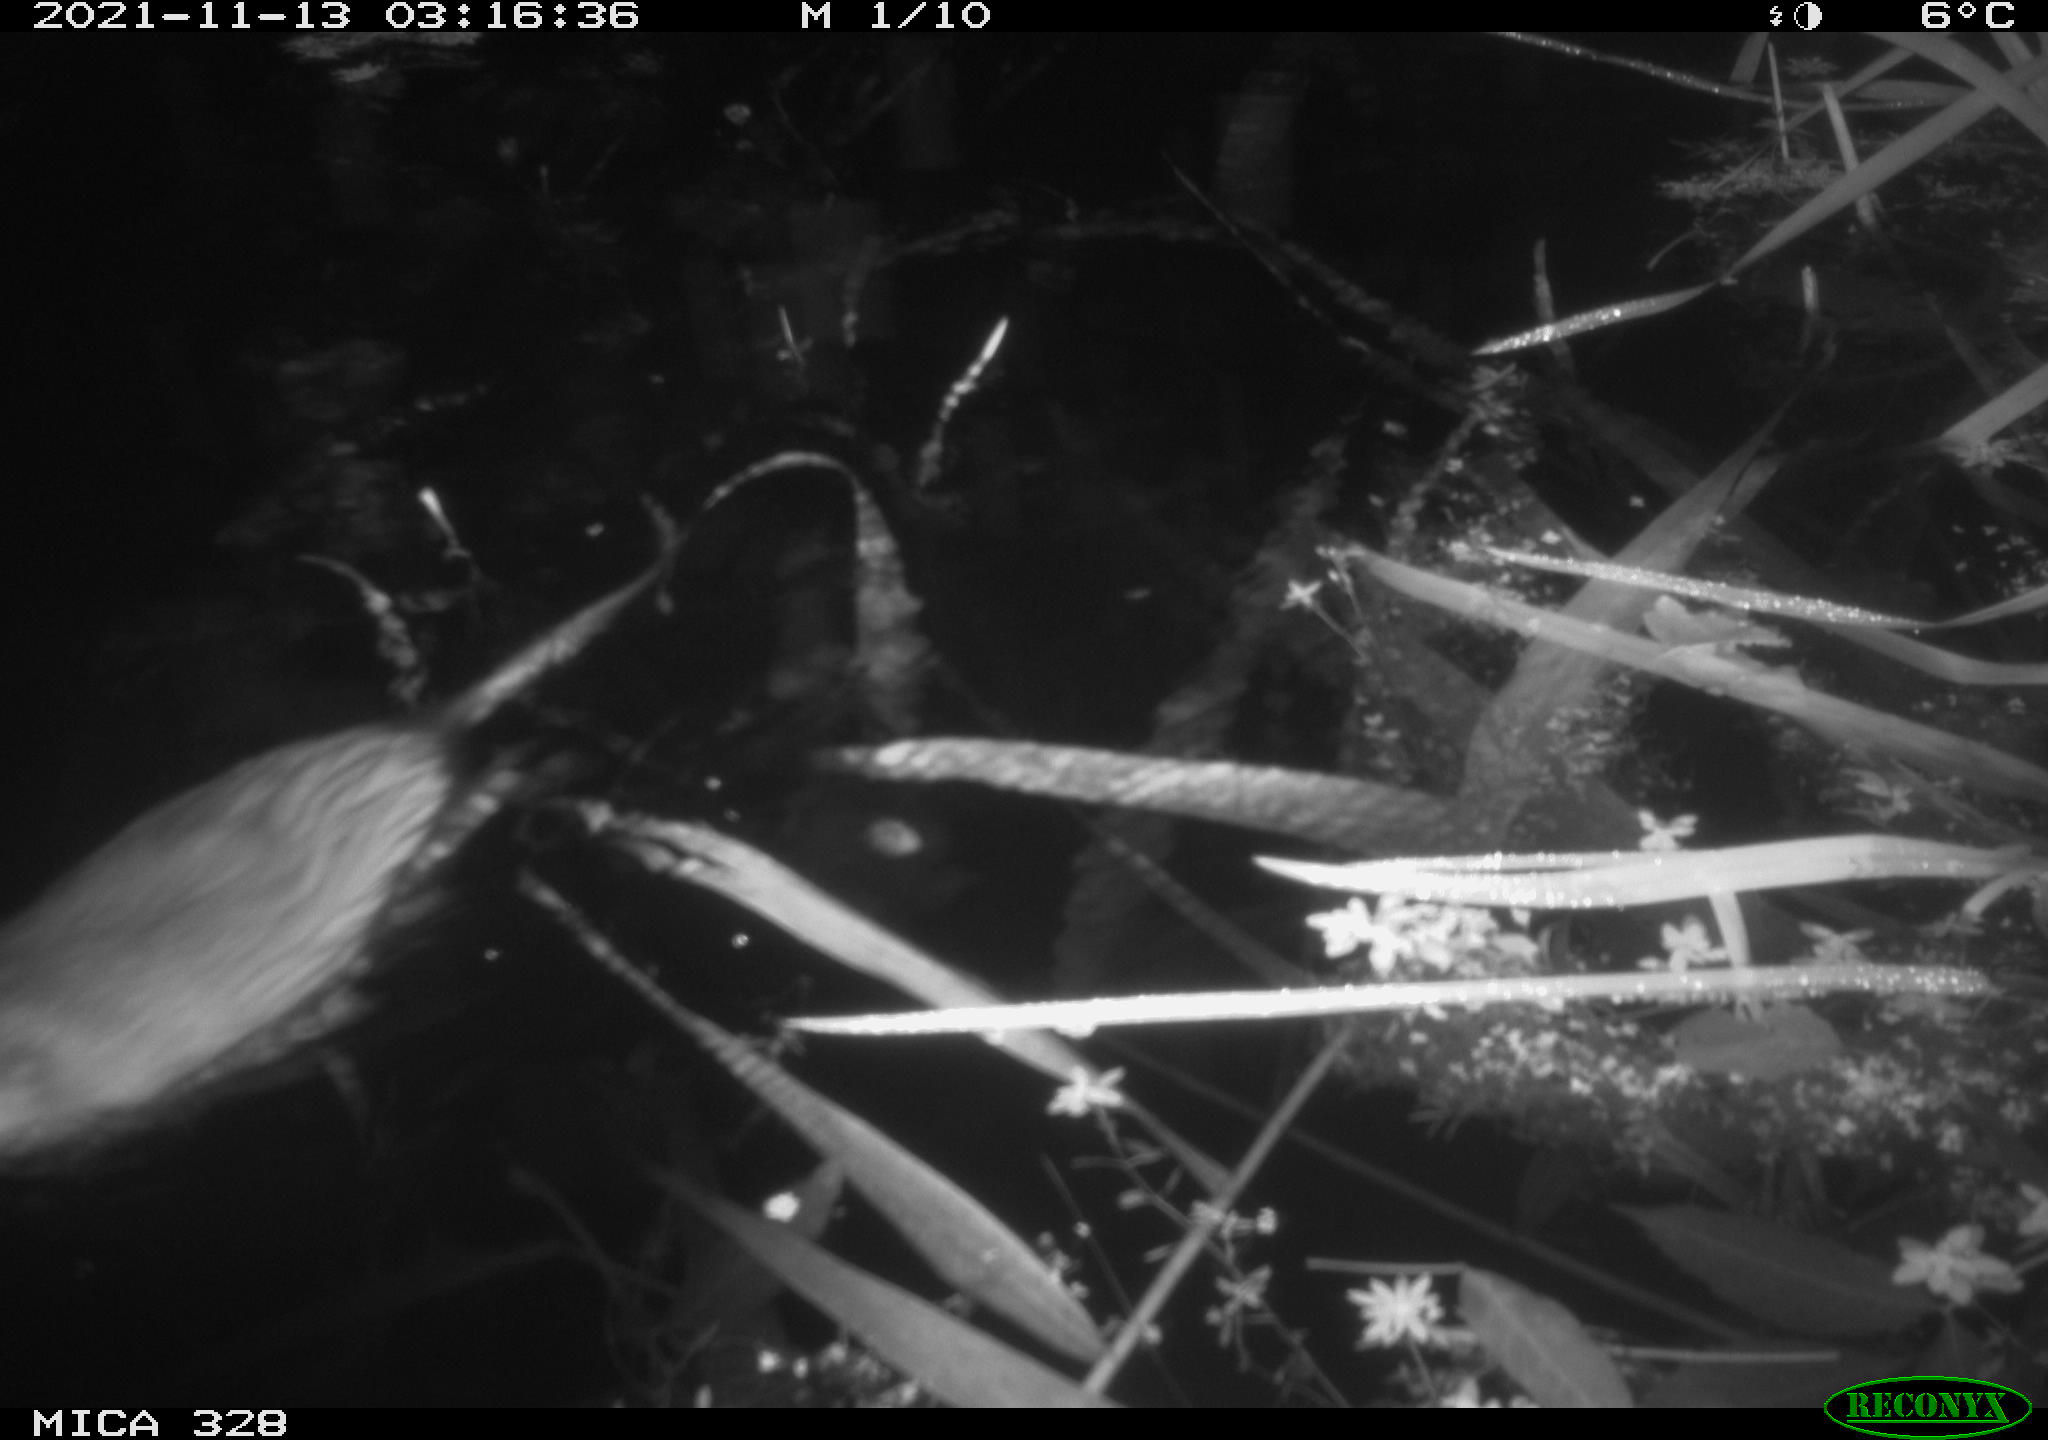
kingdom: Animalia
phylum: Chordata
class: Mammalia
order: Rodentia
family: Cricetidae
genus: Ondatra
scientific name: Ondatra zibethicus
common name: Muskrat
